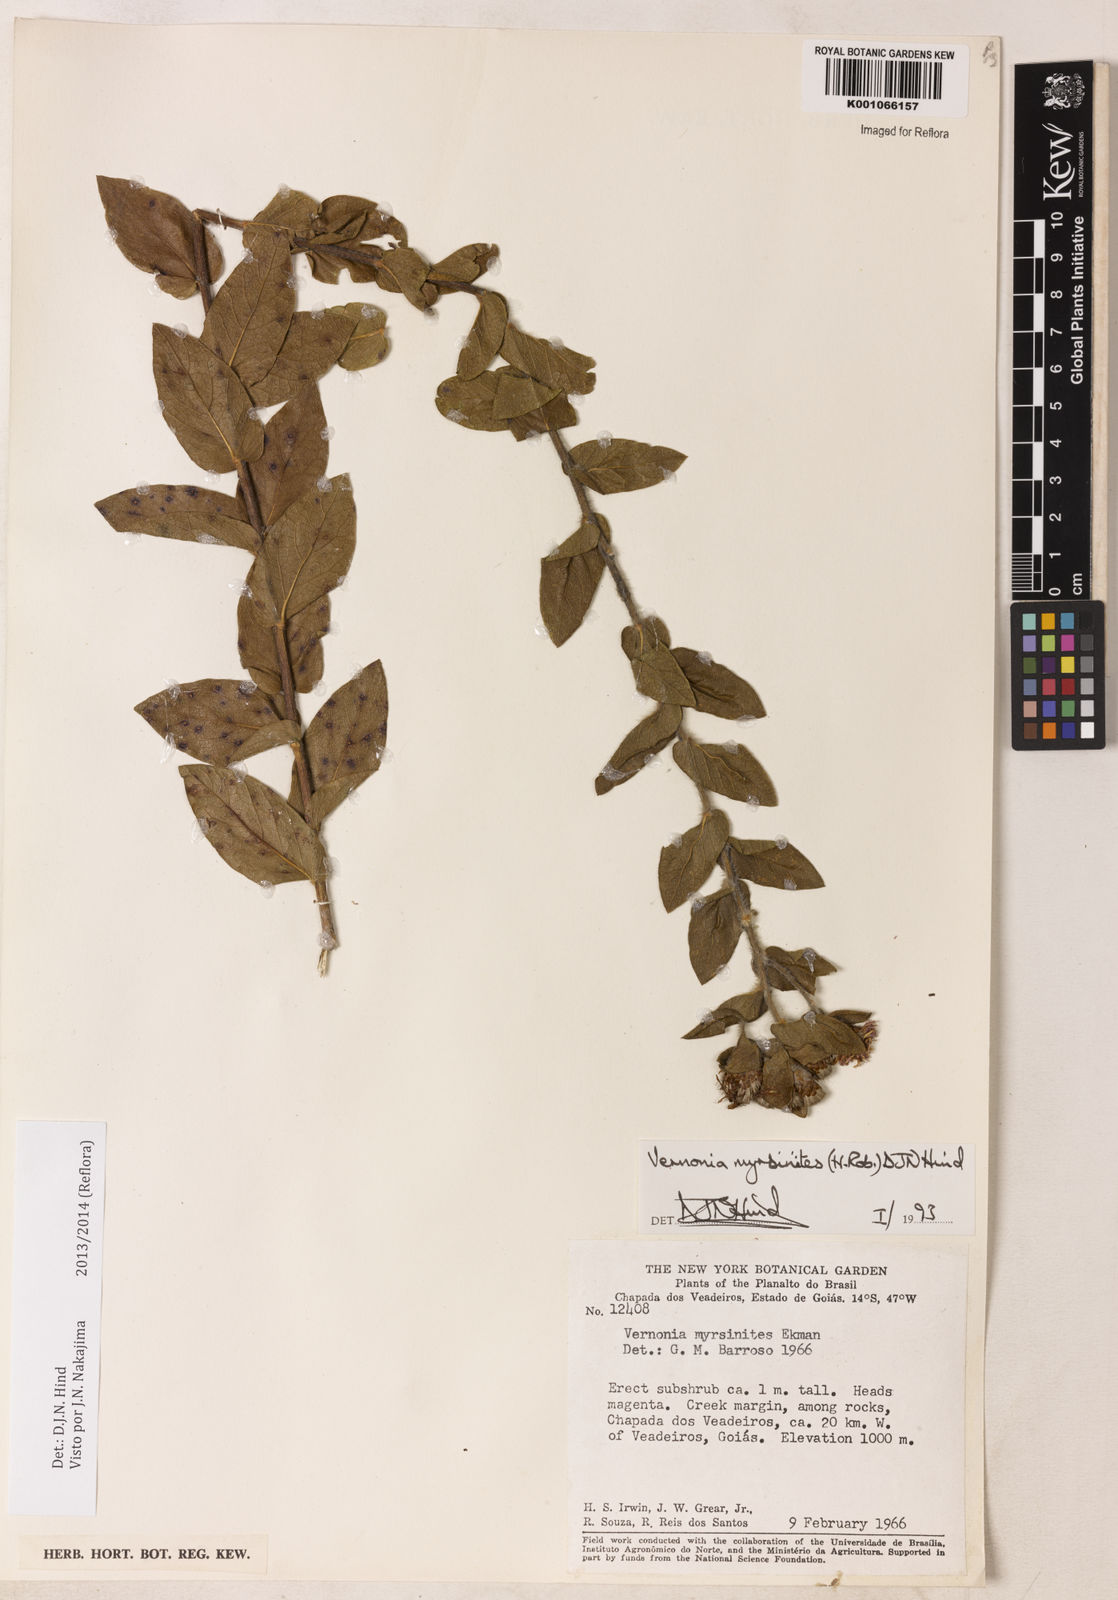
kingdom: Plantae
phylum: Tracheophyta
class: Magnoliopsida
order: Asterales
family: Asteraceae
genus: Lessingianthus
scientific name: Lessingianthus myrsinites
